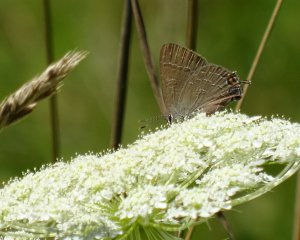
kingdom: Animalia
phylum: Arthropoda
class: Insecta
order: Lepidoptera
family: Lycaenidae
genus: Satyrium
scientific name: Satyrium calanus
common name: Banded Hairstreak
